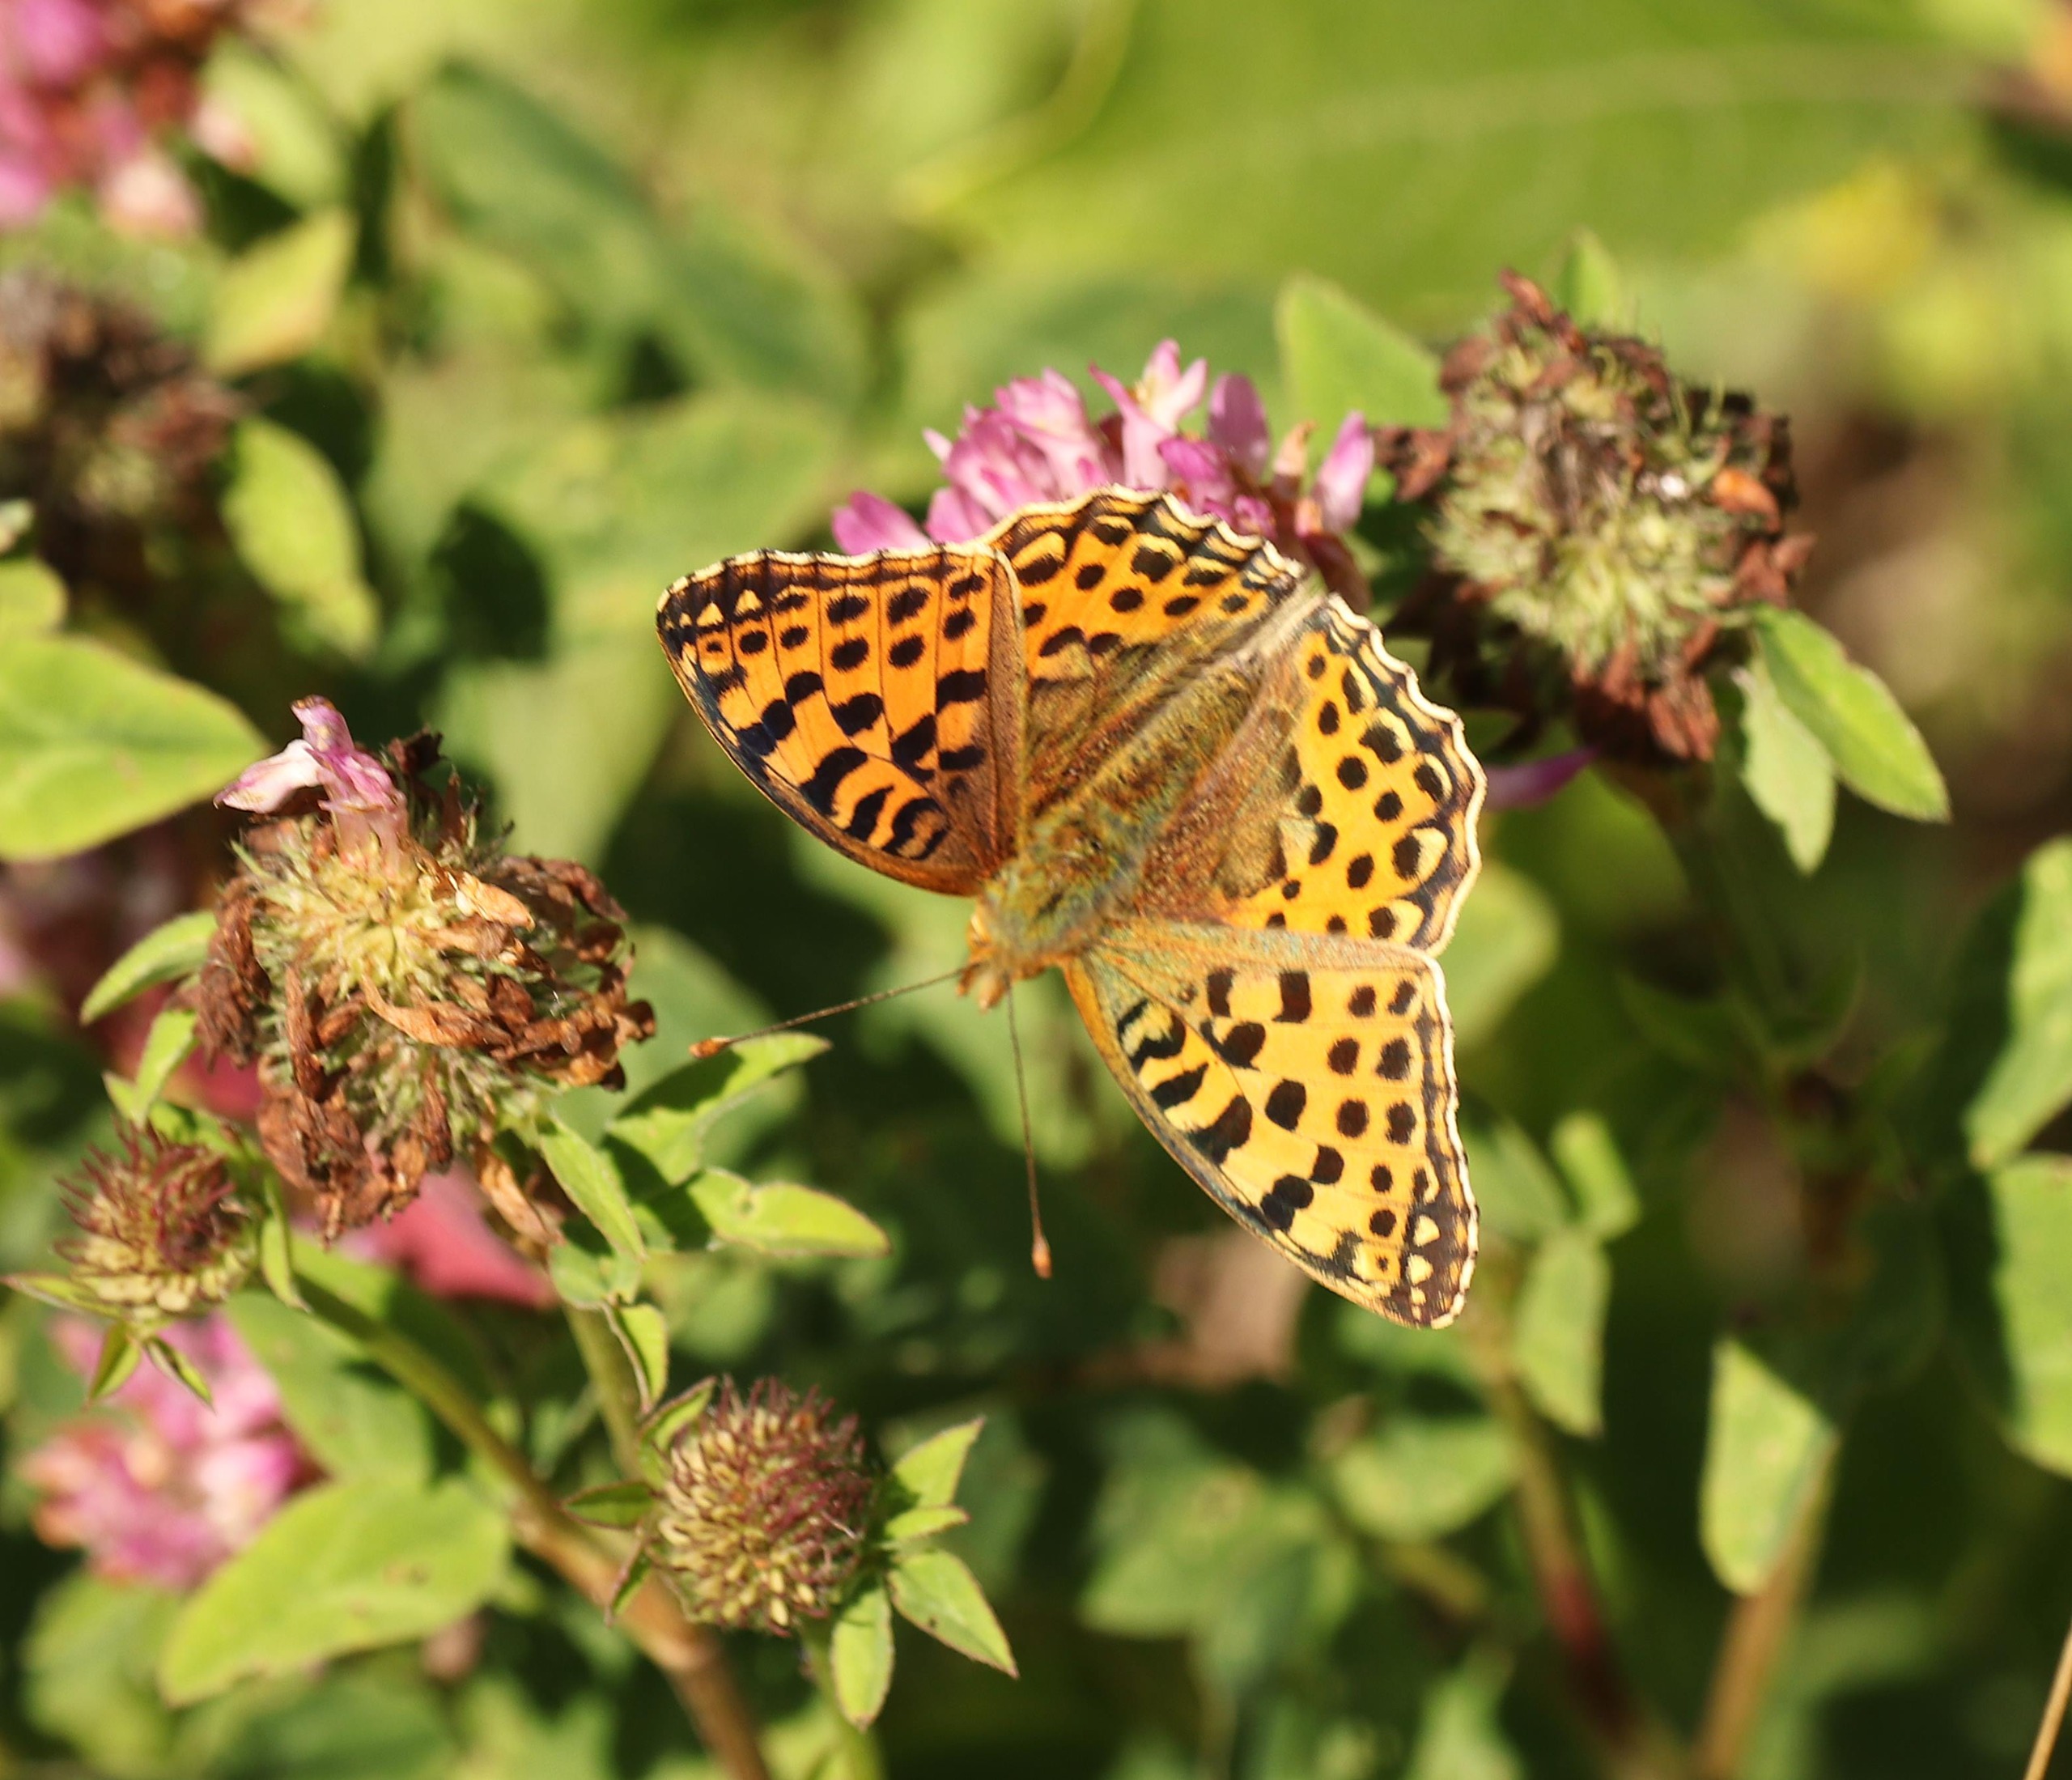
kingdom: Animalia
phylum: Arthropoda
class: Insecta
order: Lepidoptera
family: Nymphalidae
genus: Issoria
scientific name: Issoria lathonia
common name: Storplettet perlemorsommerfugl
